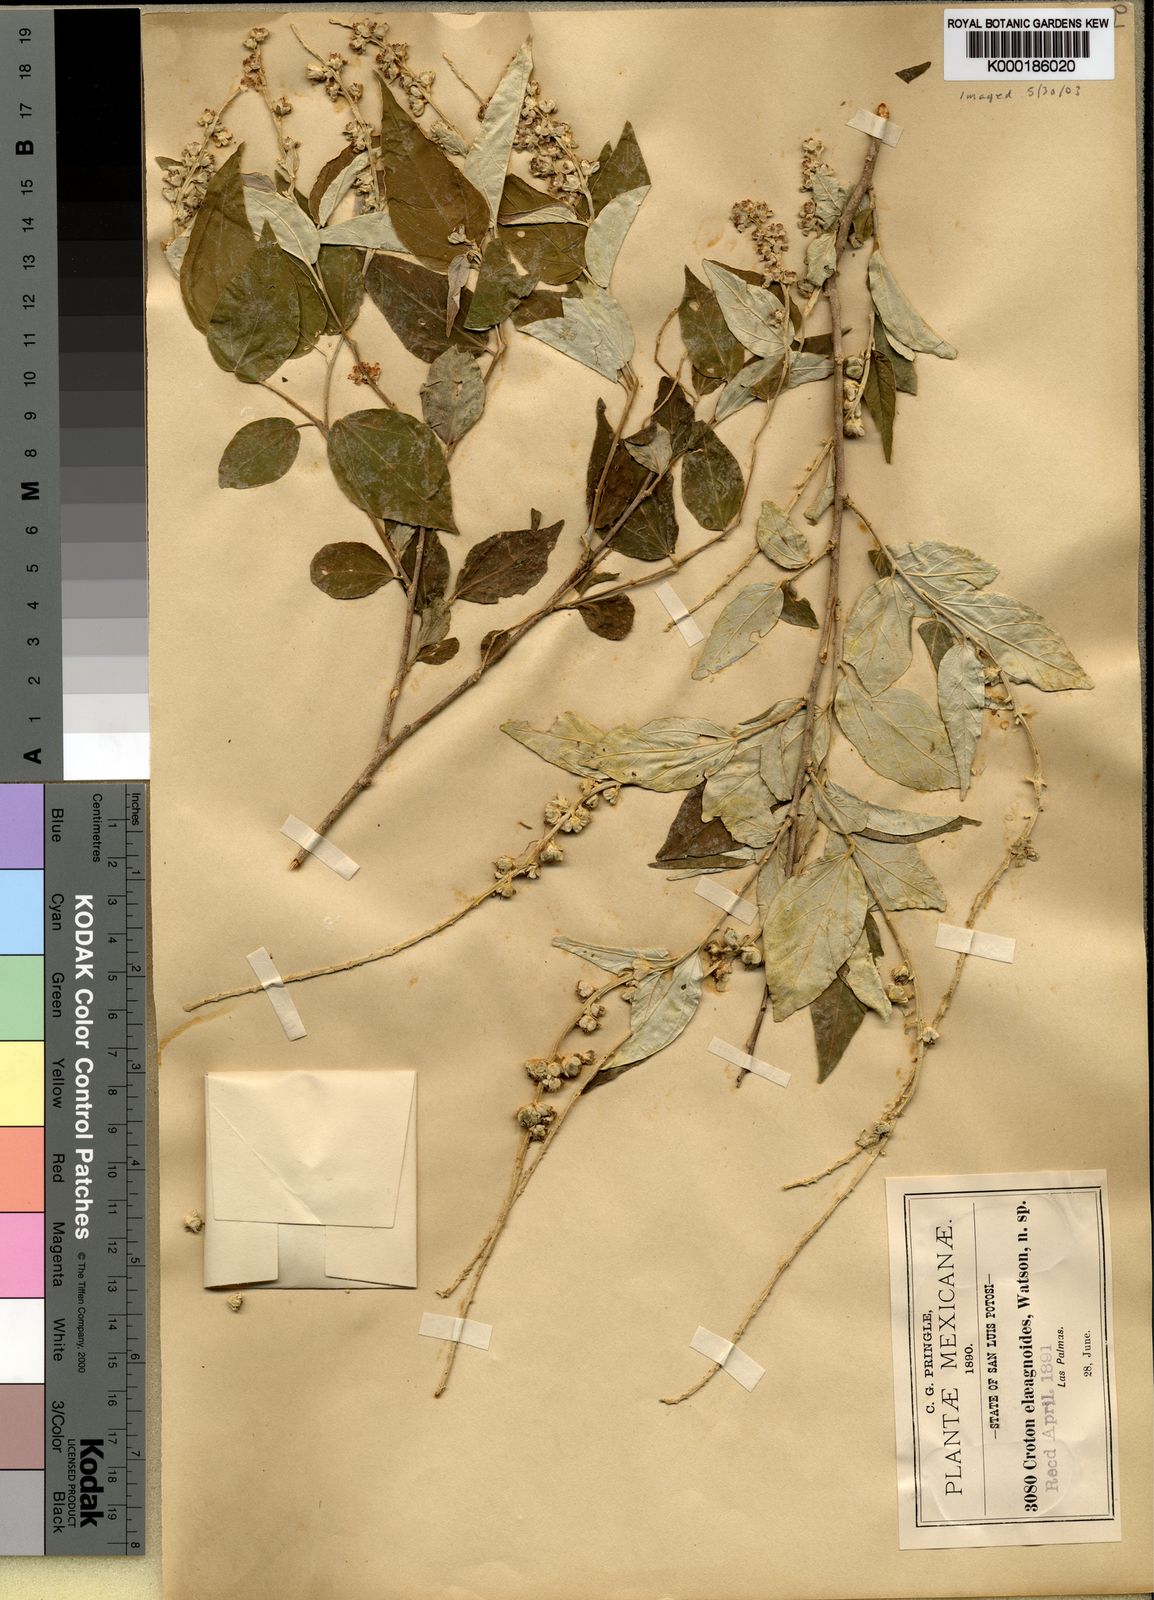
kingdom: Plantae
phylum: Tracheophyta
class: Magnoliopsida
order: Malpighiales
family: Euphorbiaceae
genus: Croton
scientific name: Croton watsonii
